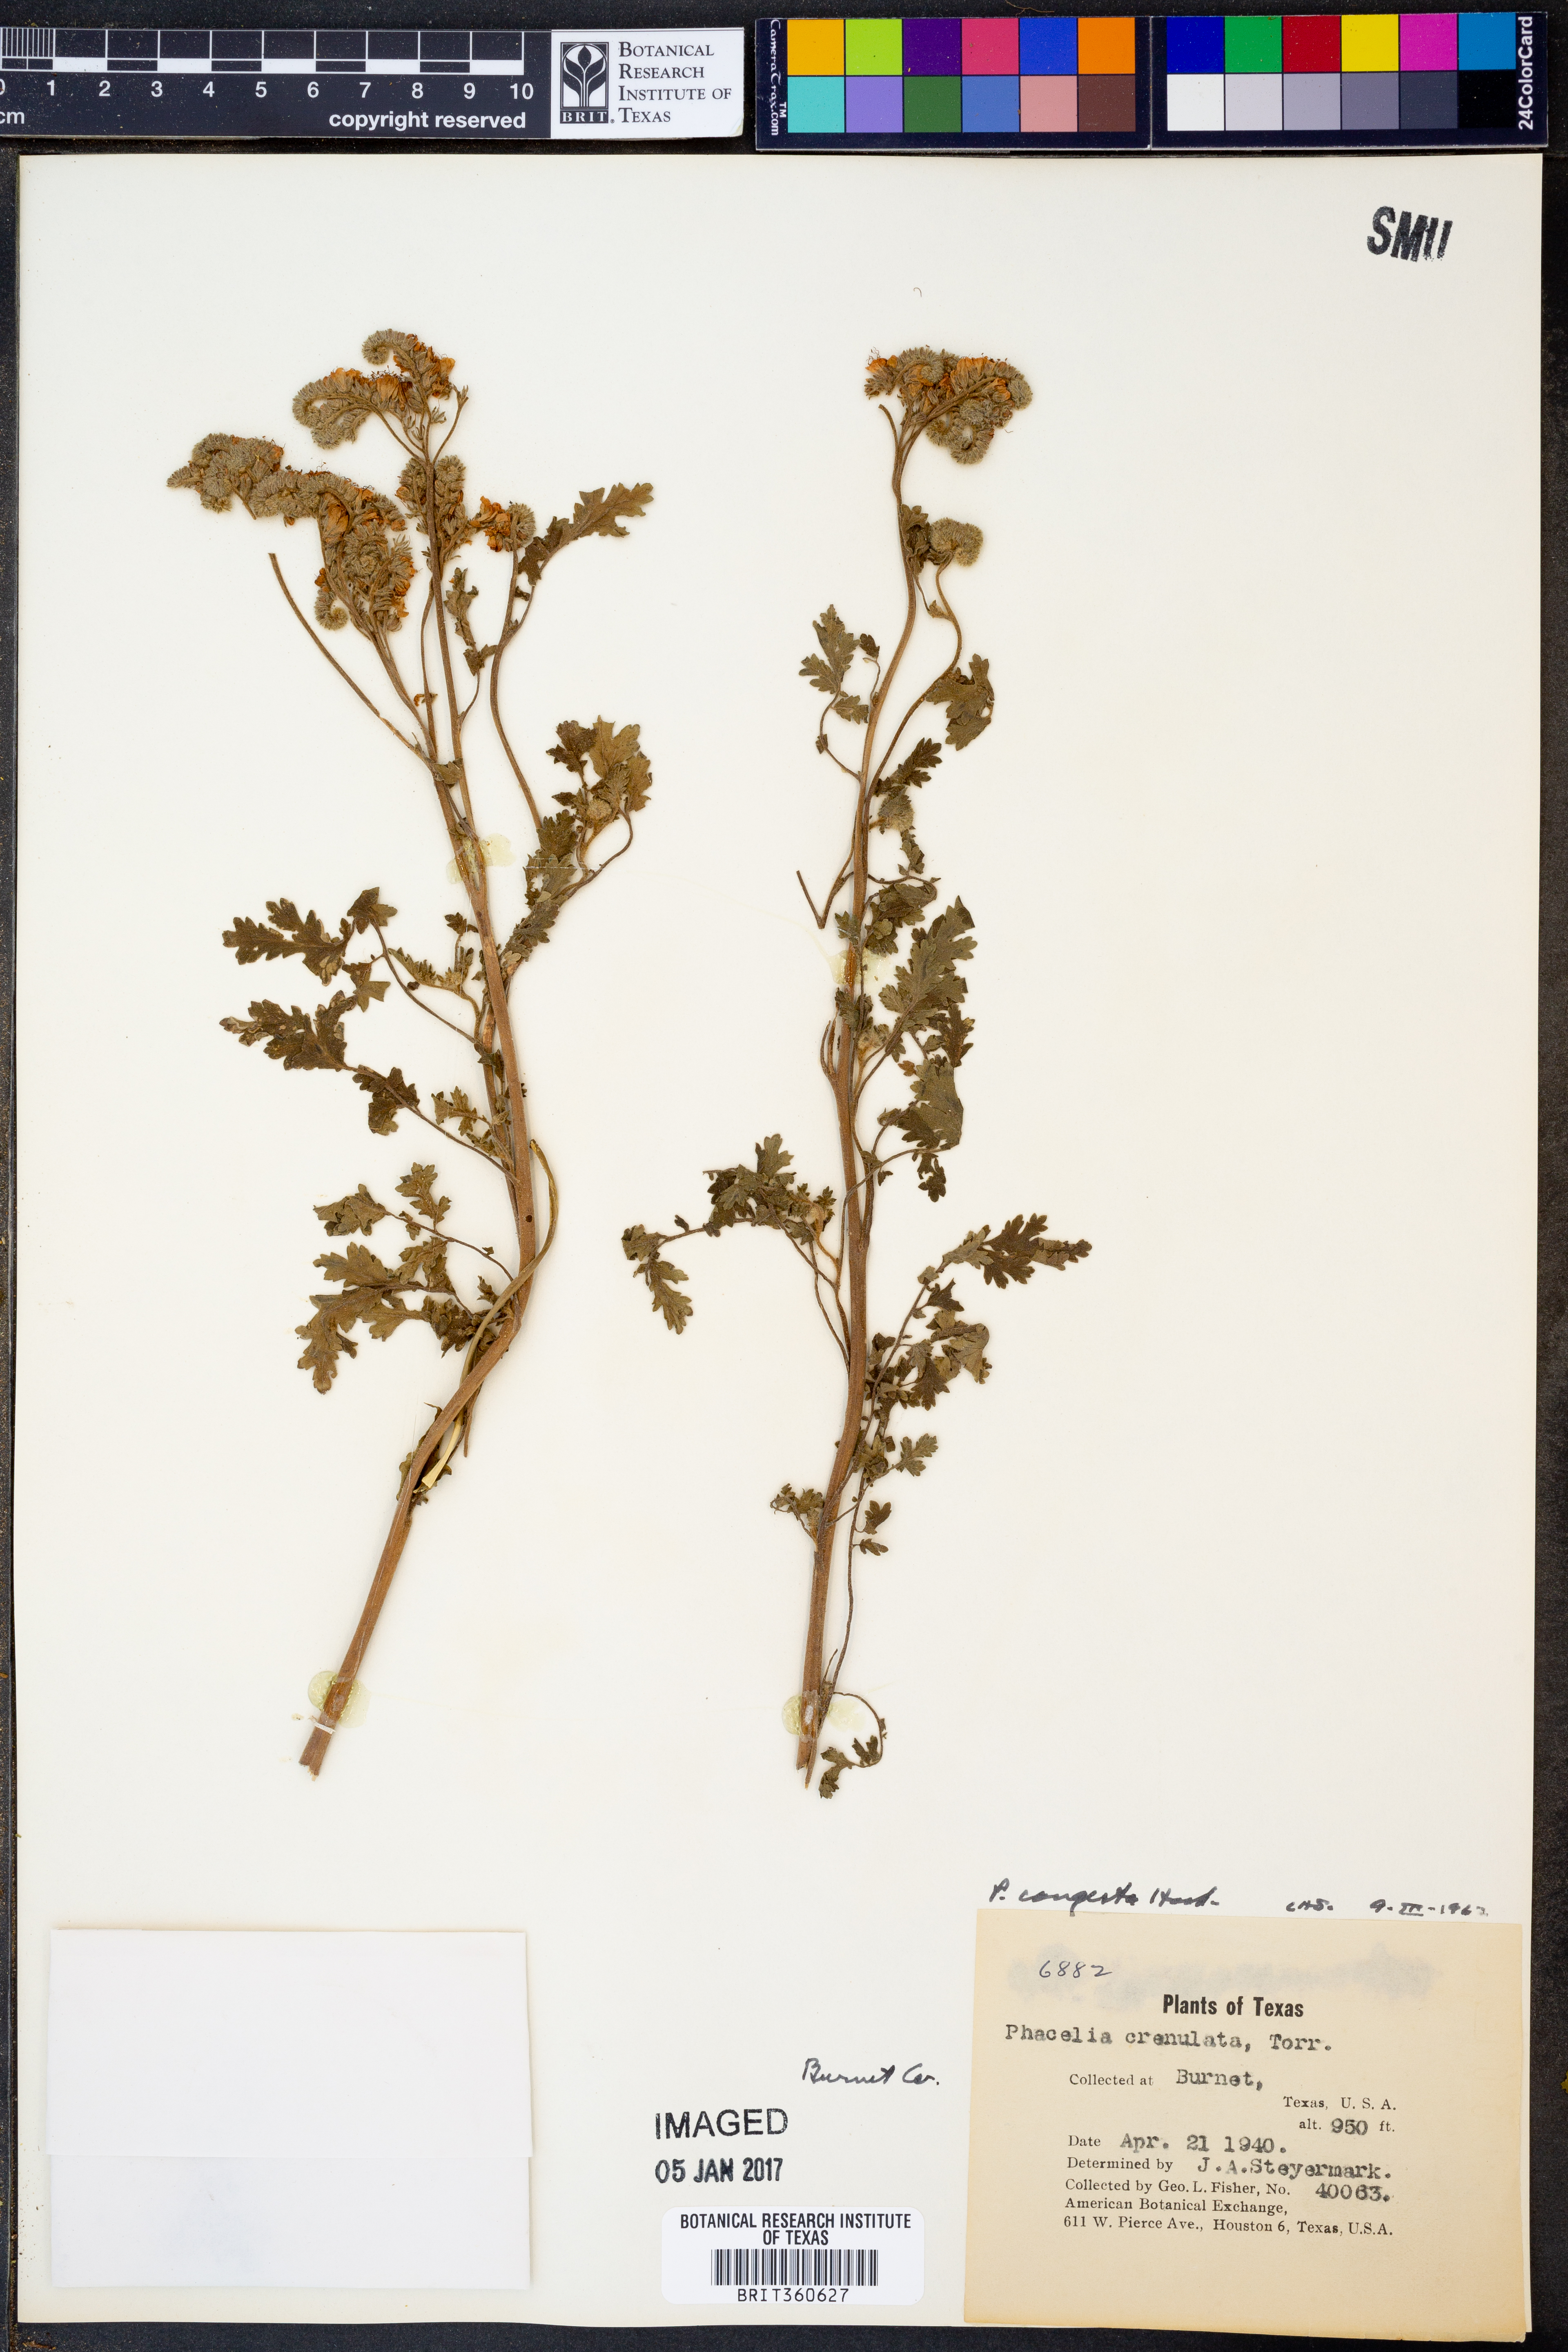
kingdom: Plantae
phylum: Tracheophyta
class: Magnoliopsida
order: Boraginales
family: Hydrophyllaceae
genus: Phacelia
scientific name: Phacelia congesta
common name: Blue curls
